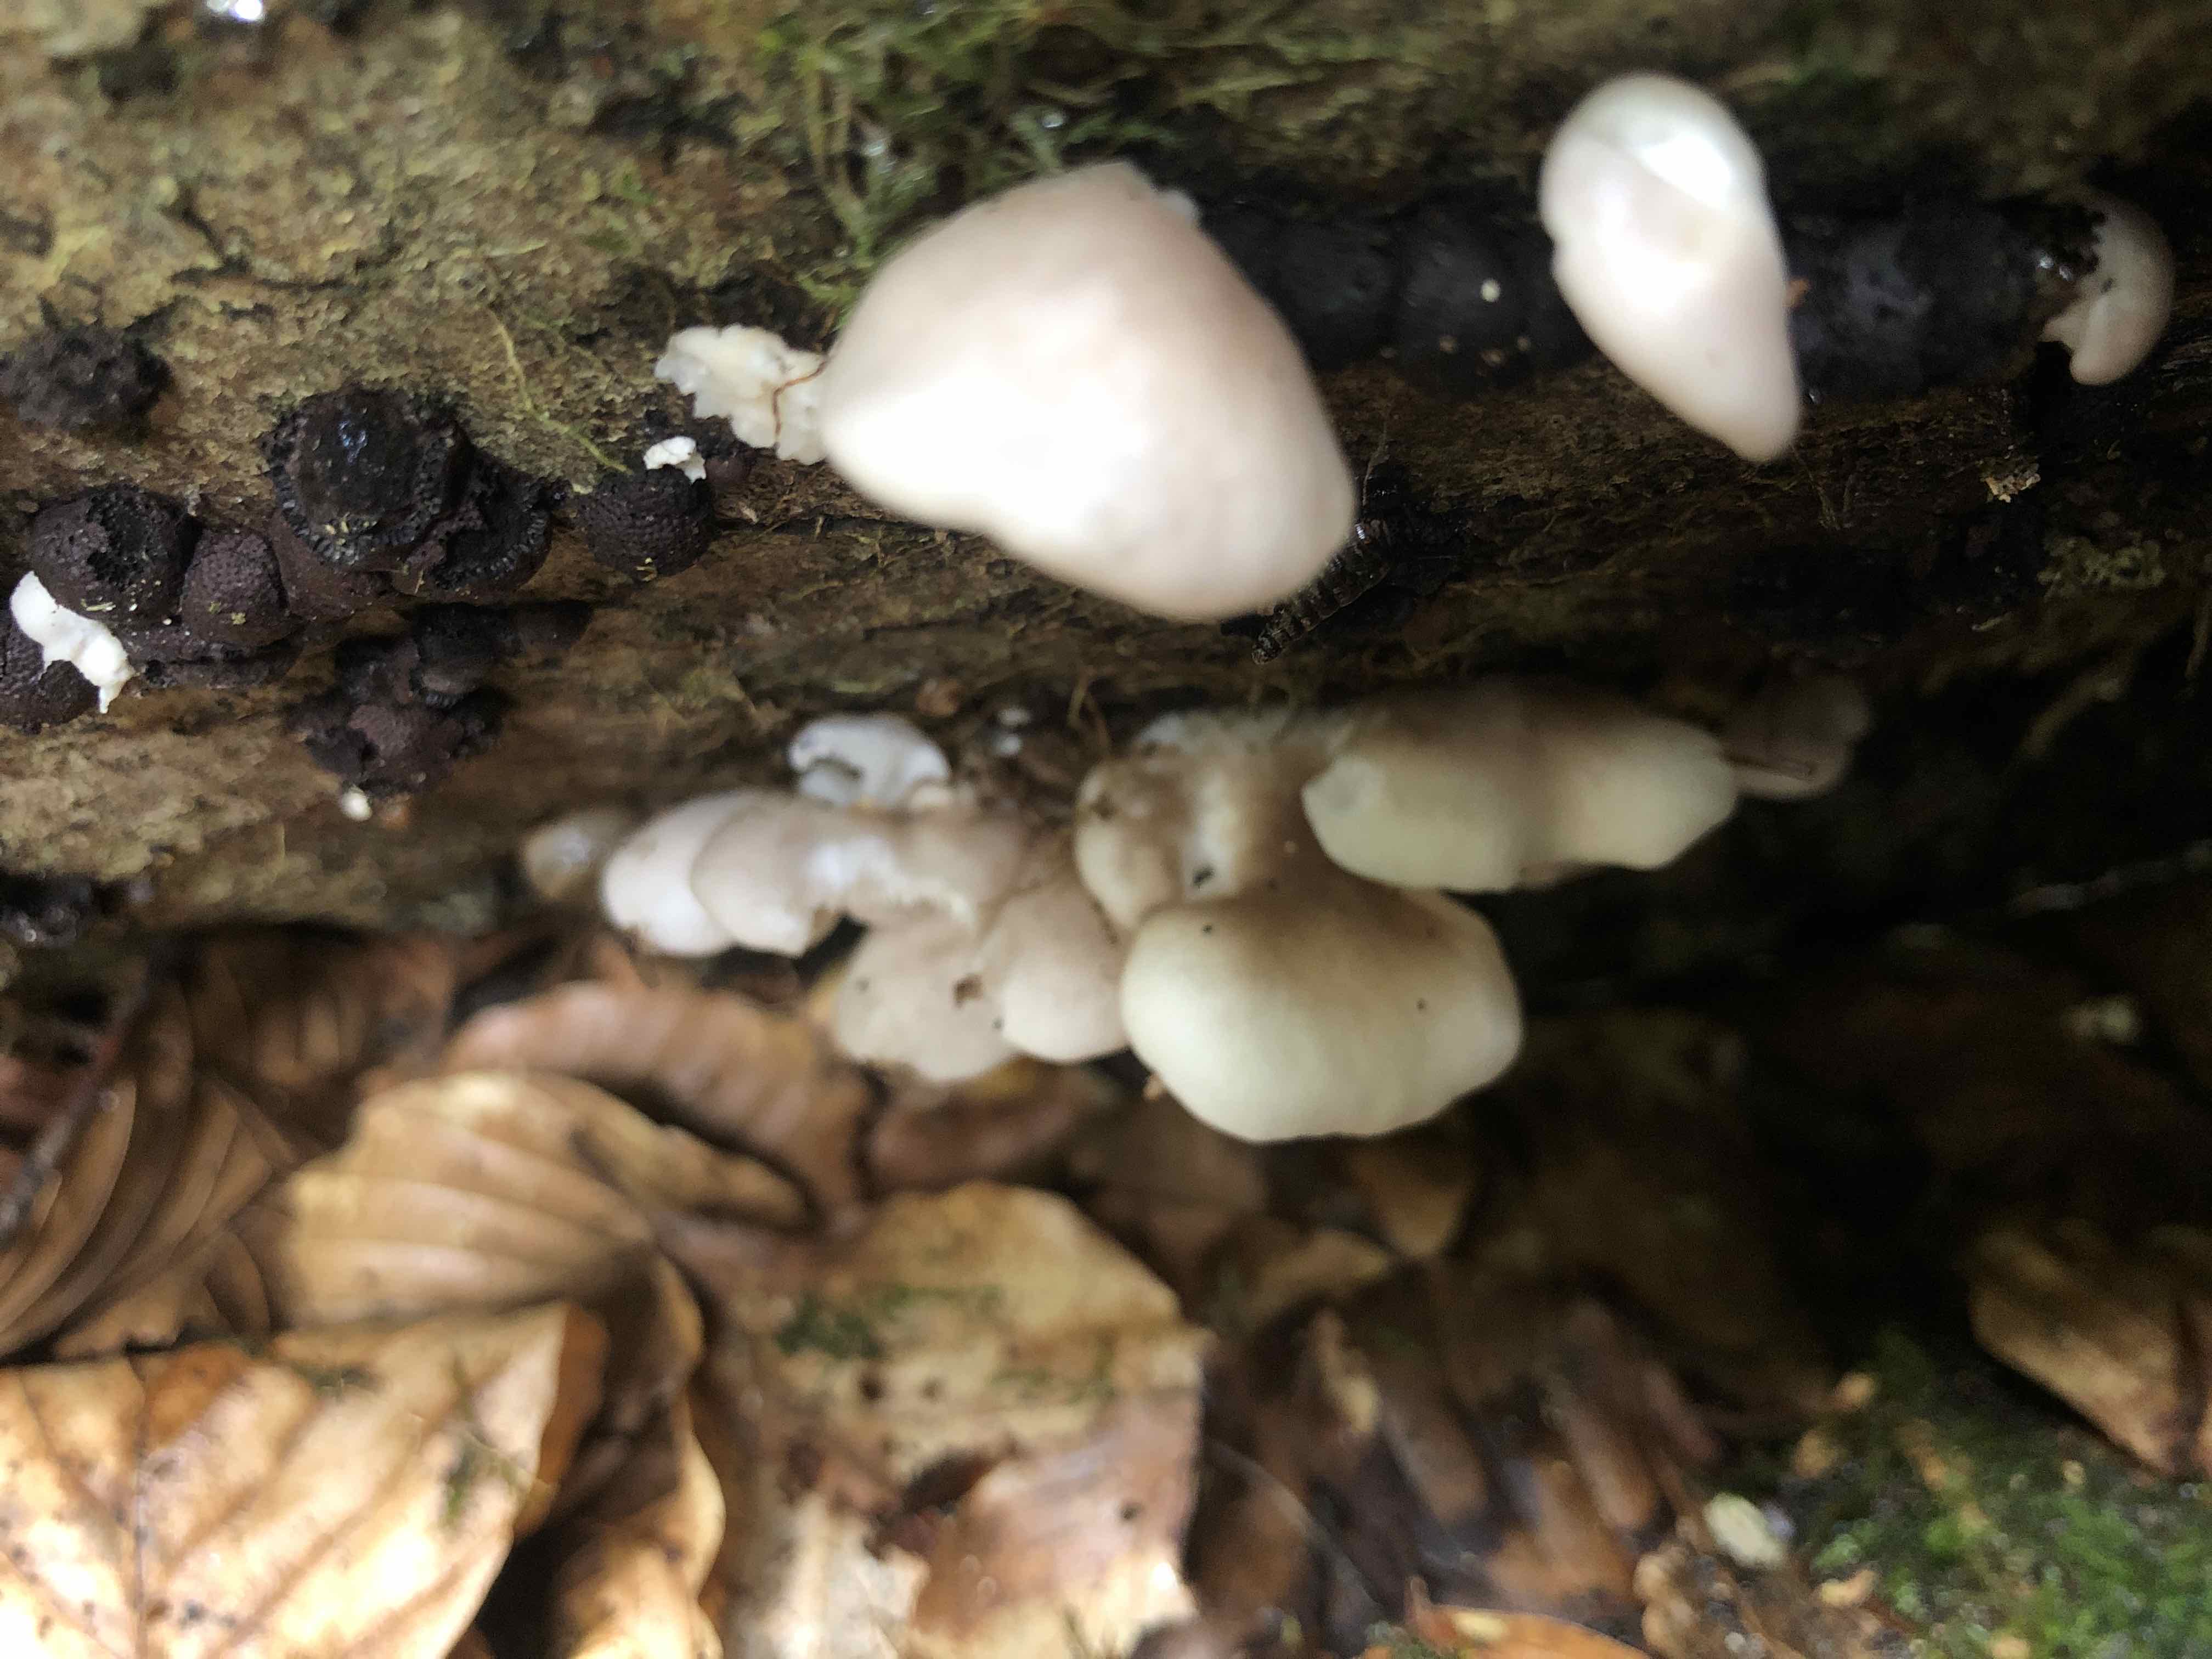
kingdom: Fungi
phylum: Basidiomycota
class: Agaricomycetes
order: Agaricales
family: Pleurotaceae
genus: Pleurotus
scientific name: Pleurotus pulmonarius
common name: sommer-østershat
